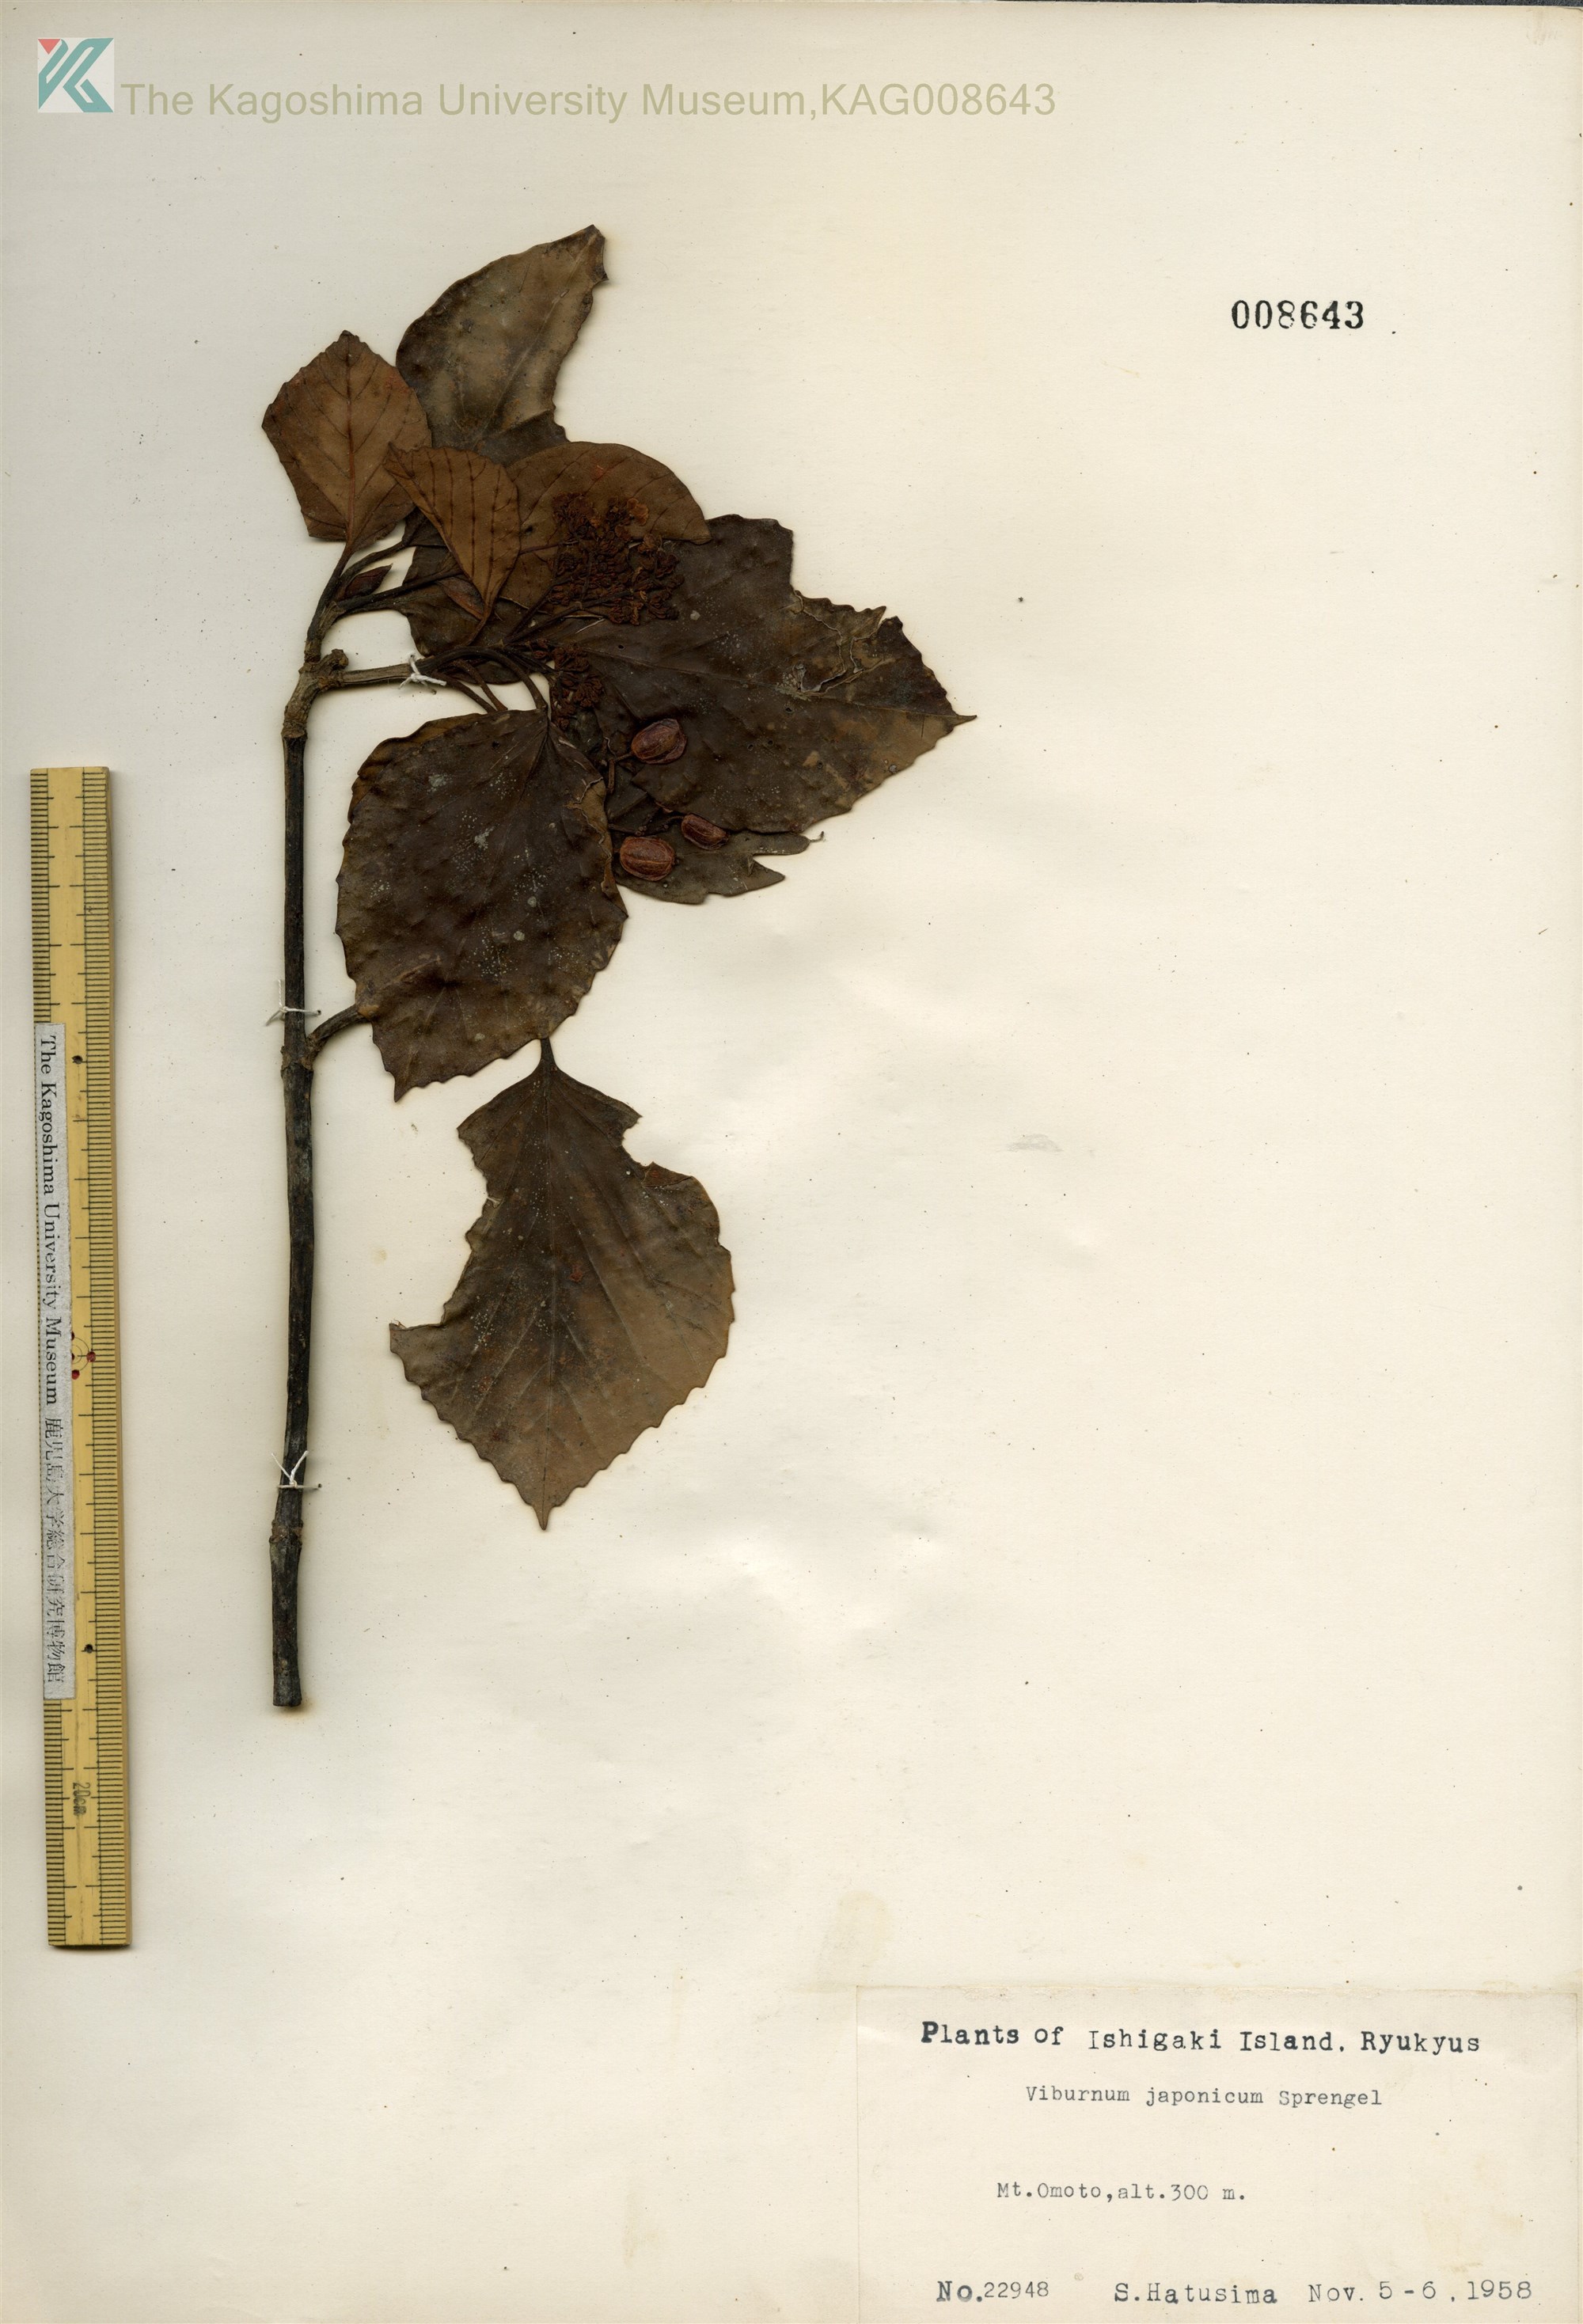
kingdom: Plantae
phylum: Tracheophyta
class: Magnoliopsida
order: Dipsacales
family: Viburnaceae
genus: Viburnum
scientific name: Viburnum japonicum
